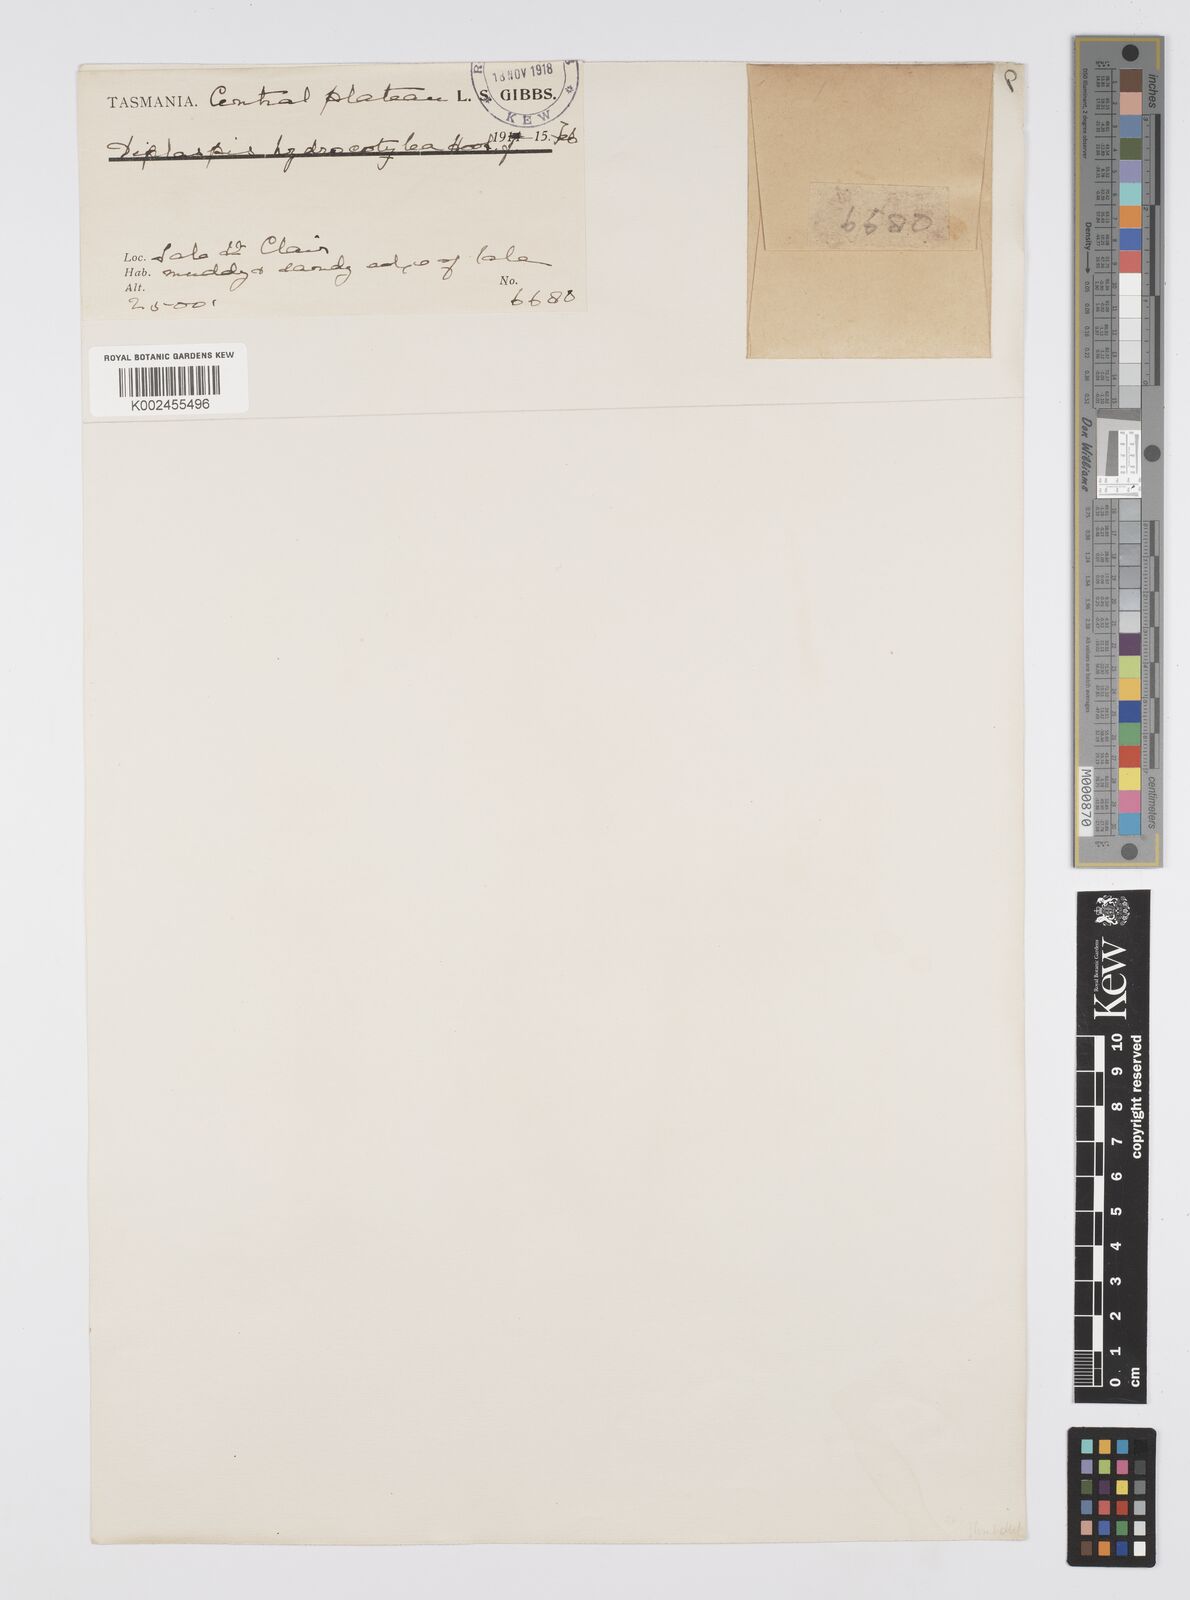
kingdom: Plantae
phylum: Tracheophyta
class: Magnoliopsida
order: Apiales
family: Apiaceae
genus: Diplaspis
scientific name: Diplaspis hydrocotylea
